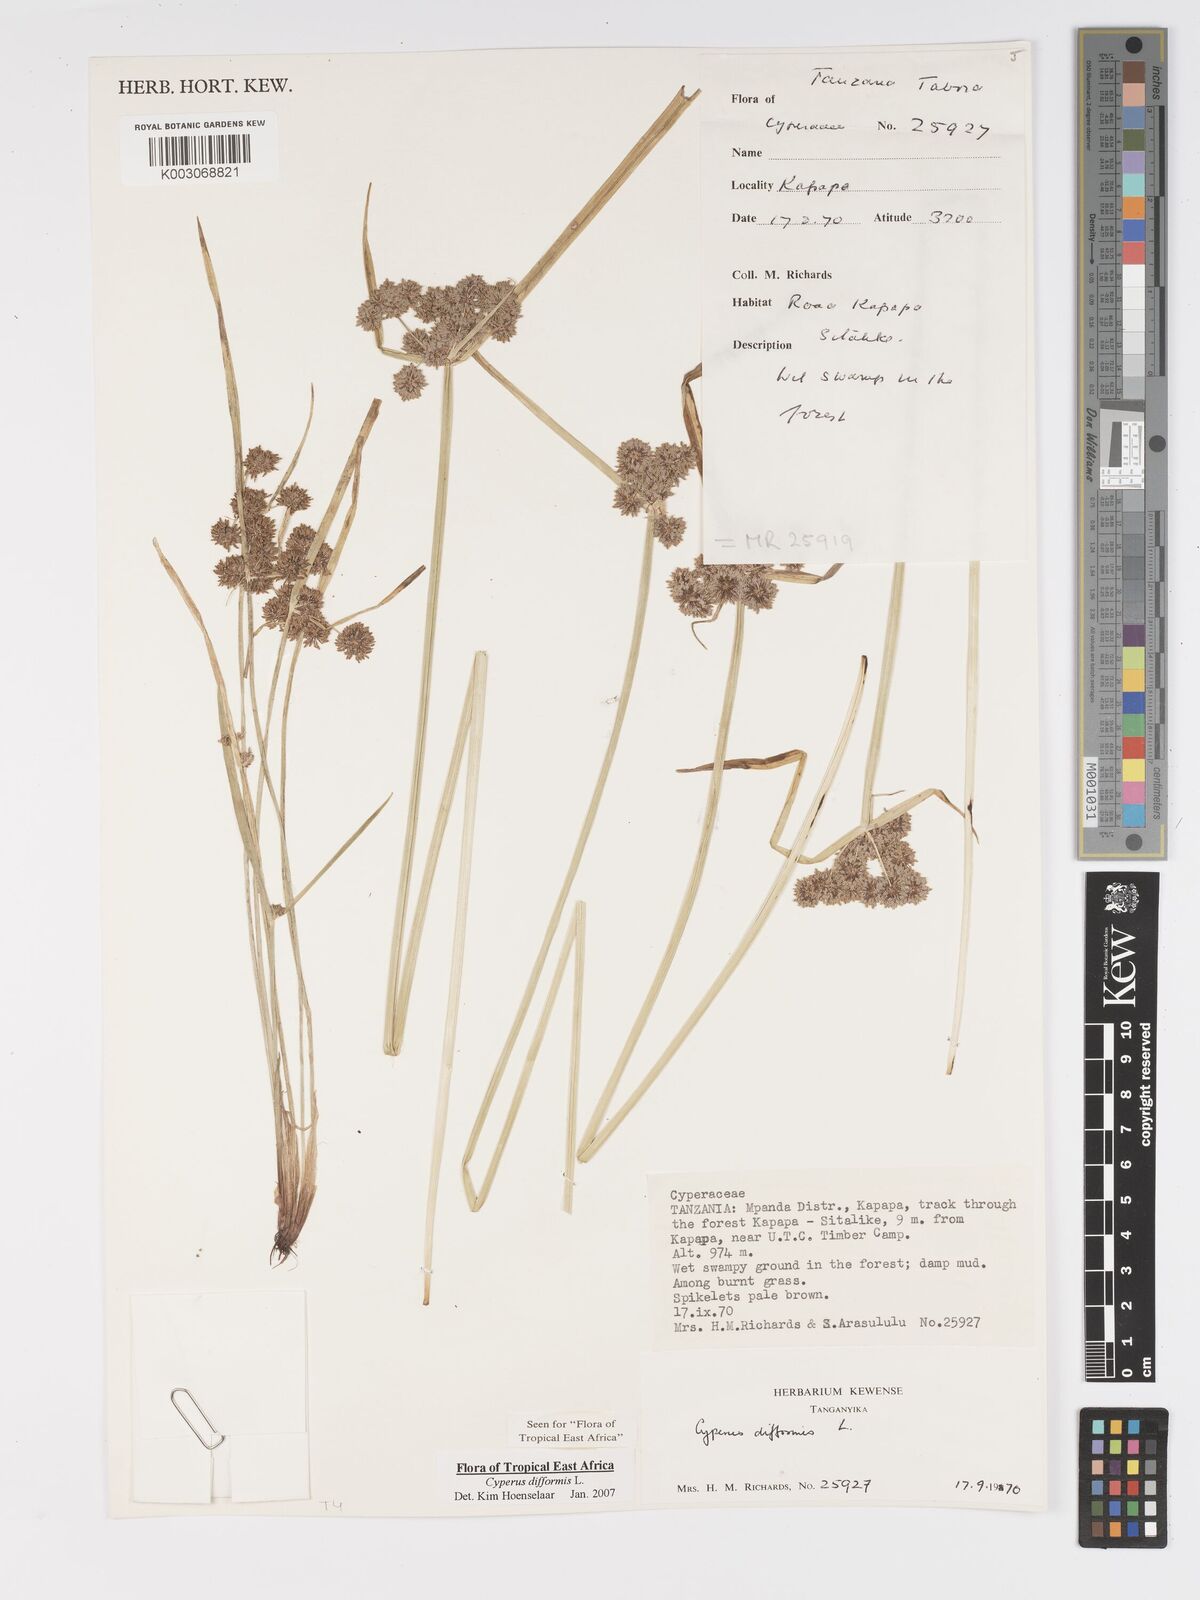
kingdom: Plantae
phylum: Tracheophyta
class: Liliopsida
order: Poales
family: Cyperaceae
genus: Cyperus
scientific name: Cyperus difformis
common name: Variable flatsedge
